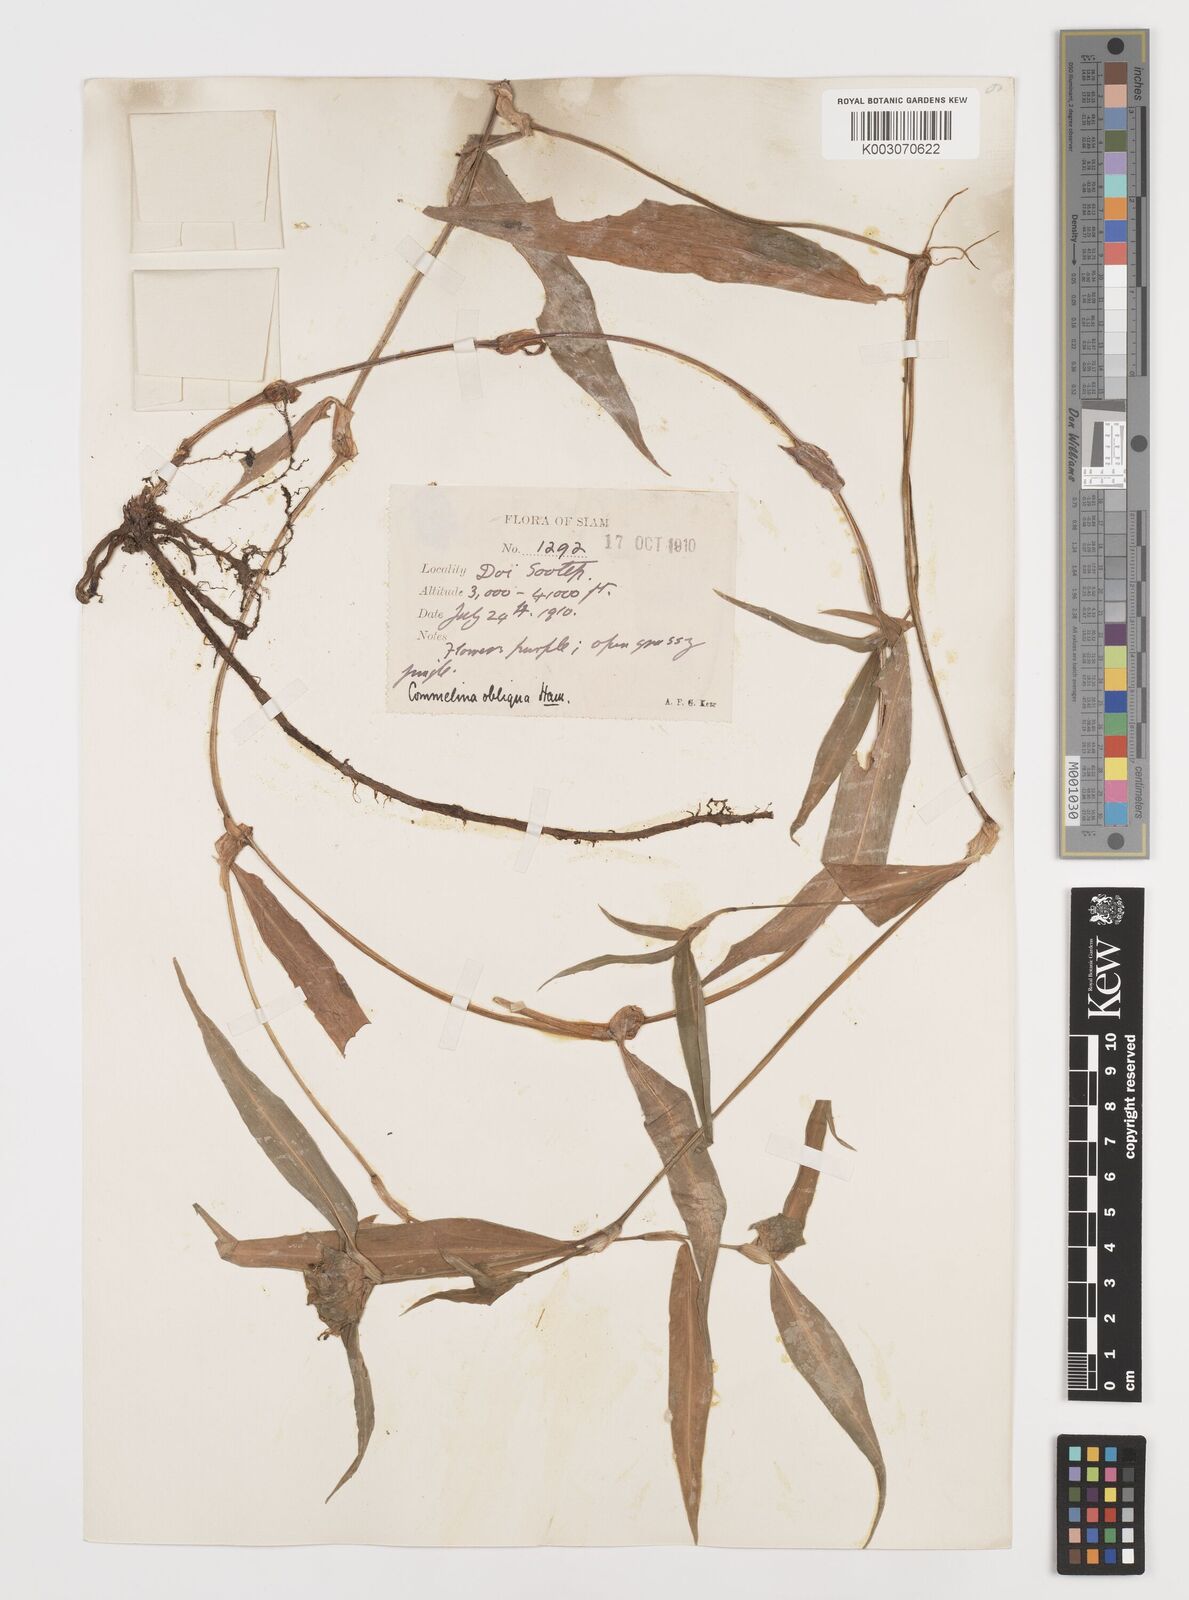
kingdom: Plantae
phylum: Tracheophyta
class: Liliopsida
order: Commelinales
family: Commelinaceae
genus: Commelina
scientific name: Commelina paludosa
